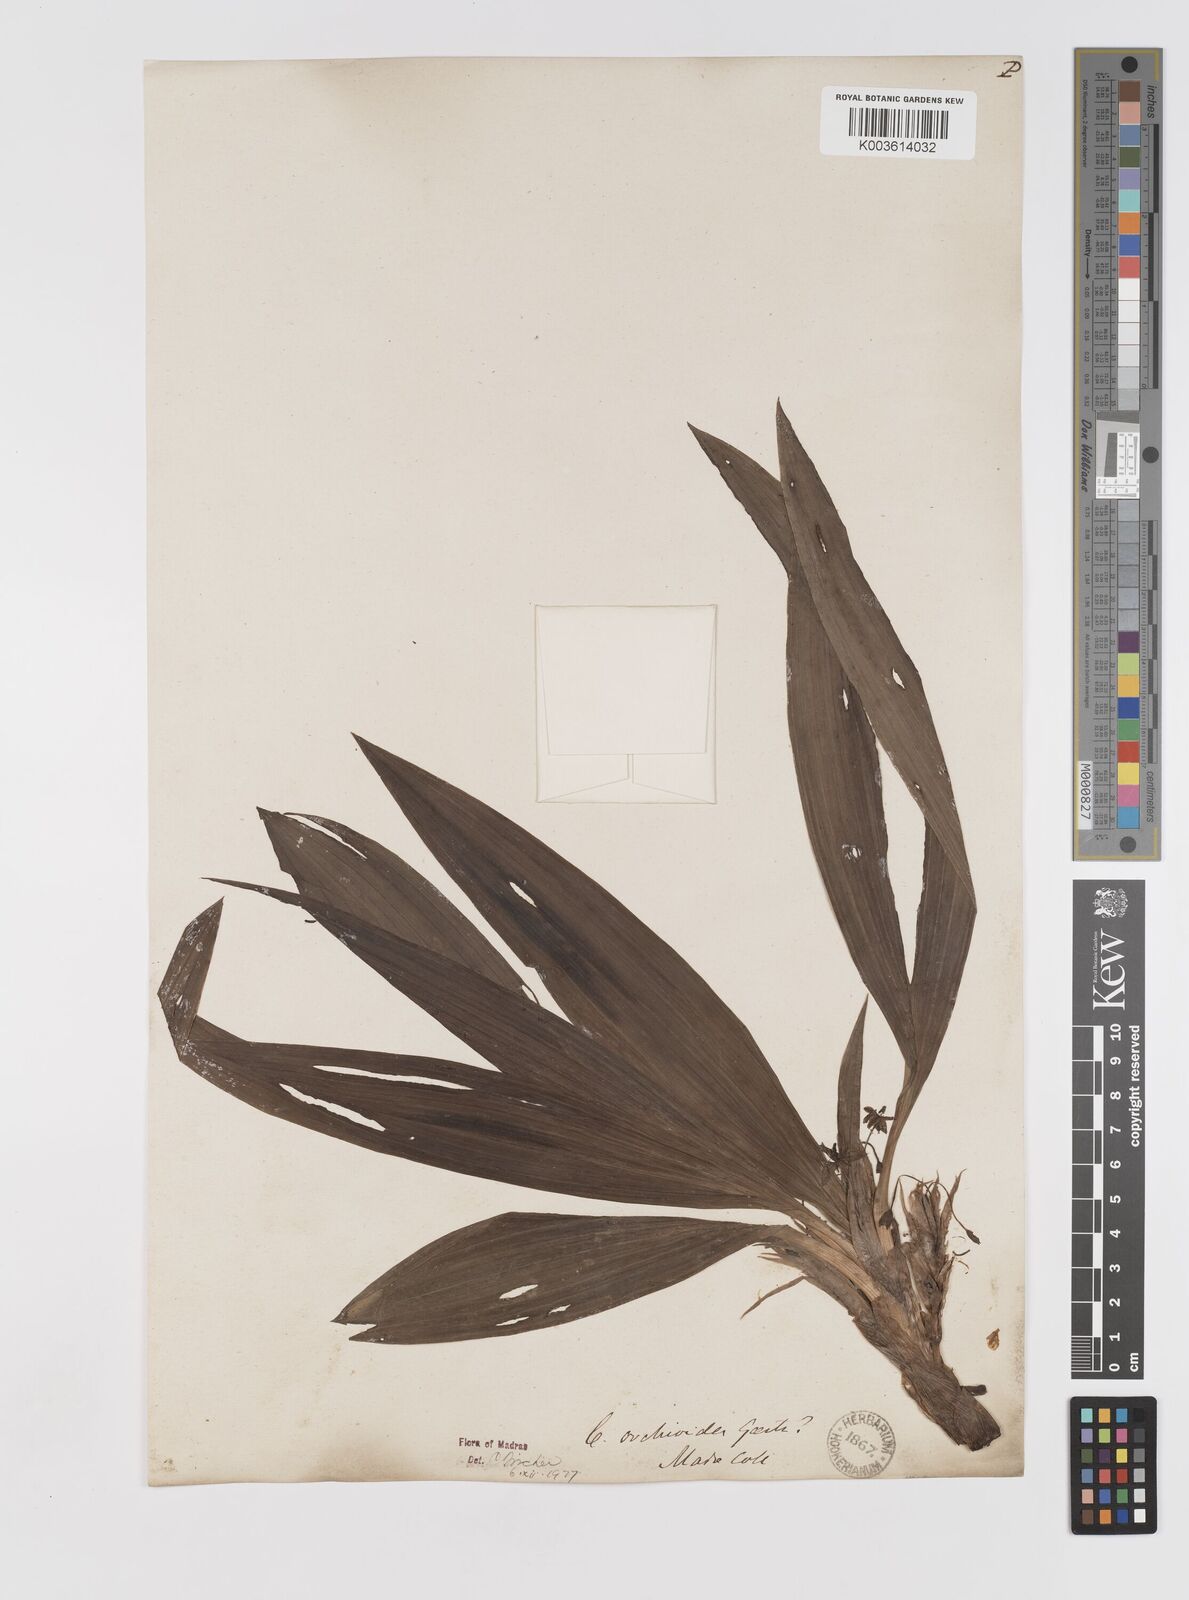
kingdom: Plantae
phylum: Tracheophyta
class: Liliopsida
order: Asparagales
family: Hypoxidaceae
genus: Curculigo
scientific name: Curculigo orchioides
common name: Golden eye-grass
